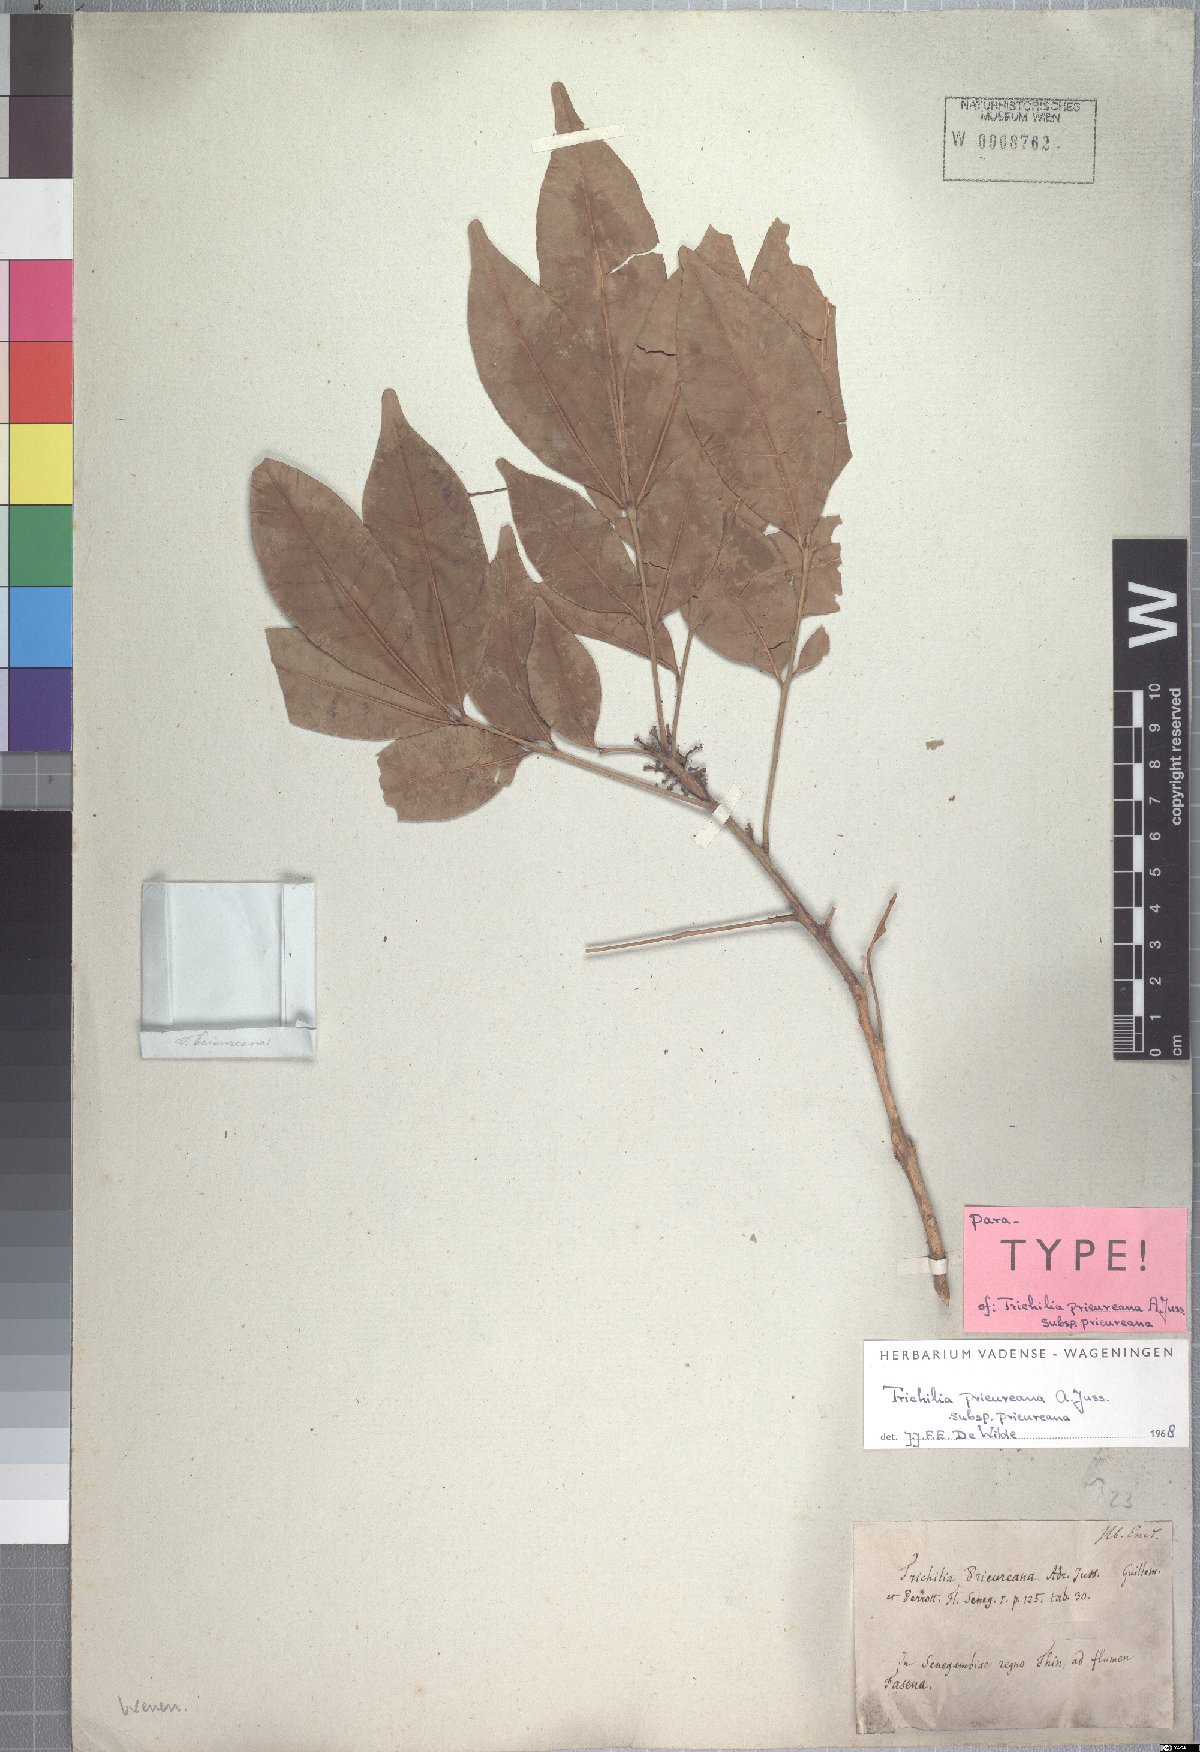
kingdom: Plantae
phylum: Tracheophyta
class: Magnoliopsida
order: Sapindales
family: Meliaceae
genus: Trichilia
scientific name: Trichilia prieuriana
